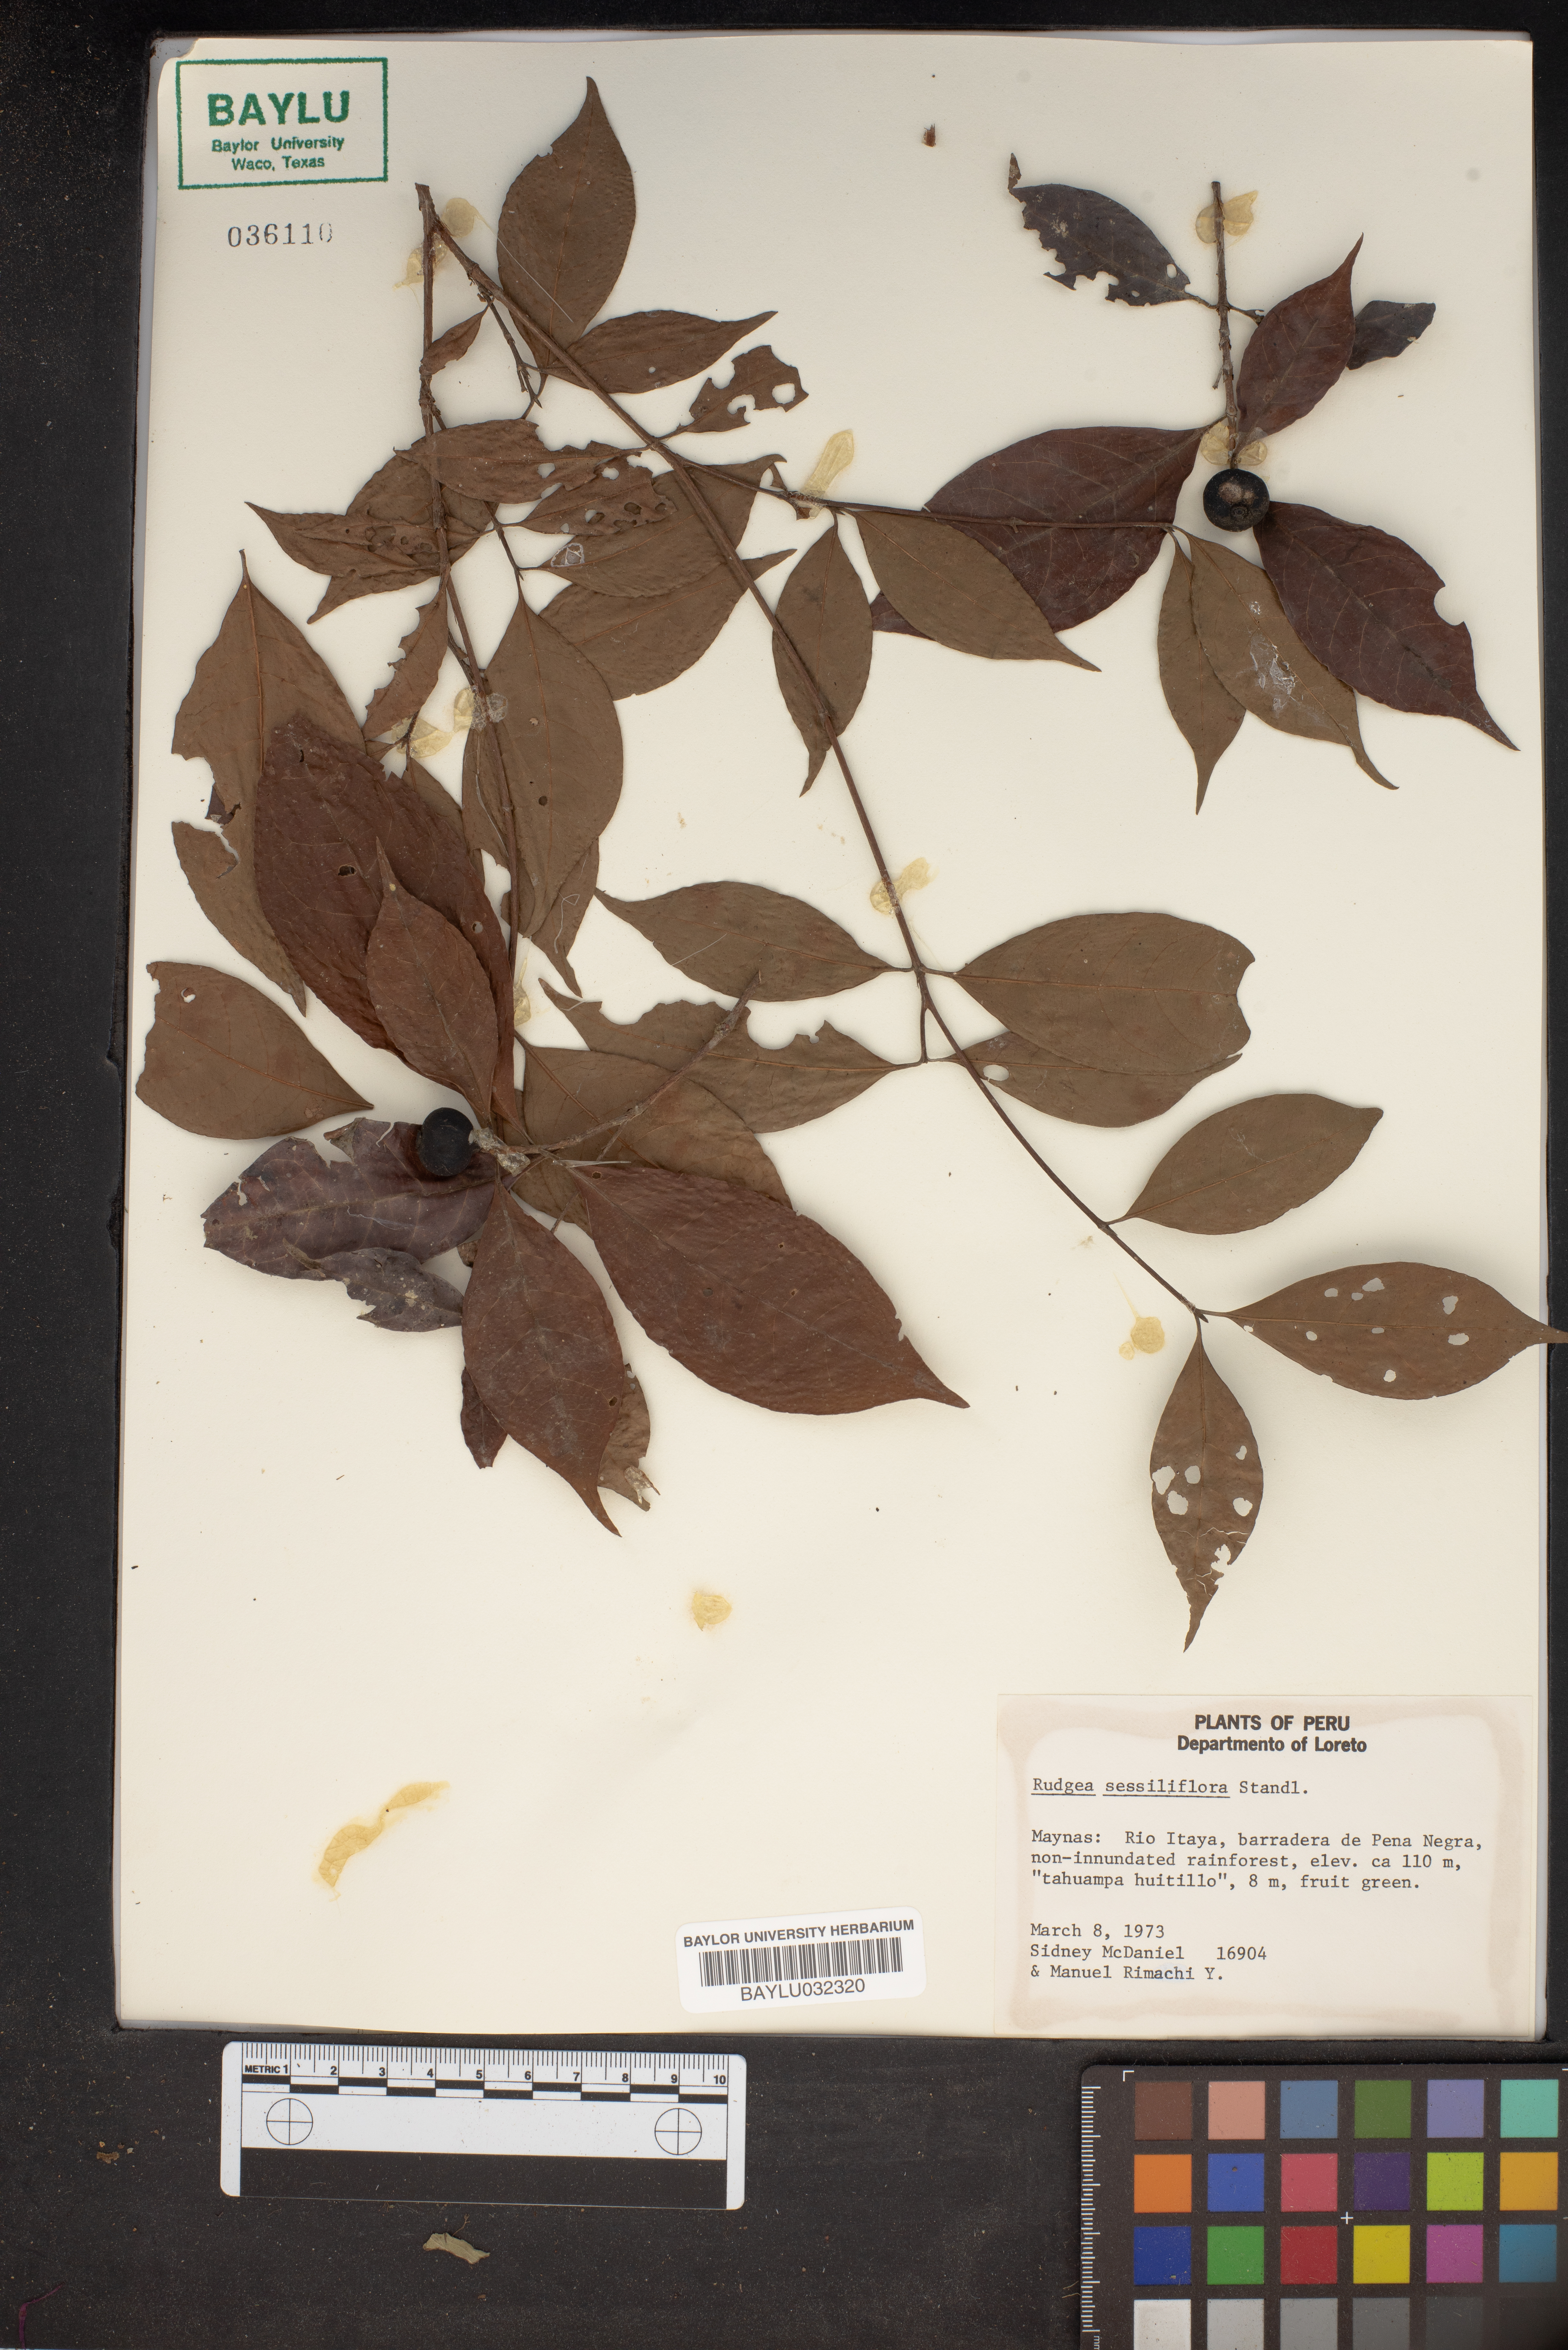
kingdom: Plantae
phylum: Tracheophyta
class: Magnoliopsida
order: Gentianales
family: Rubiaceae
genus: Rudgea
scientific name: Rudgea sessiliflora
